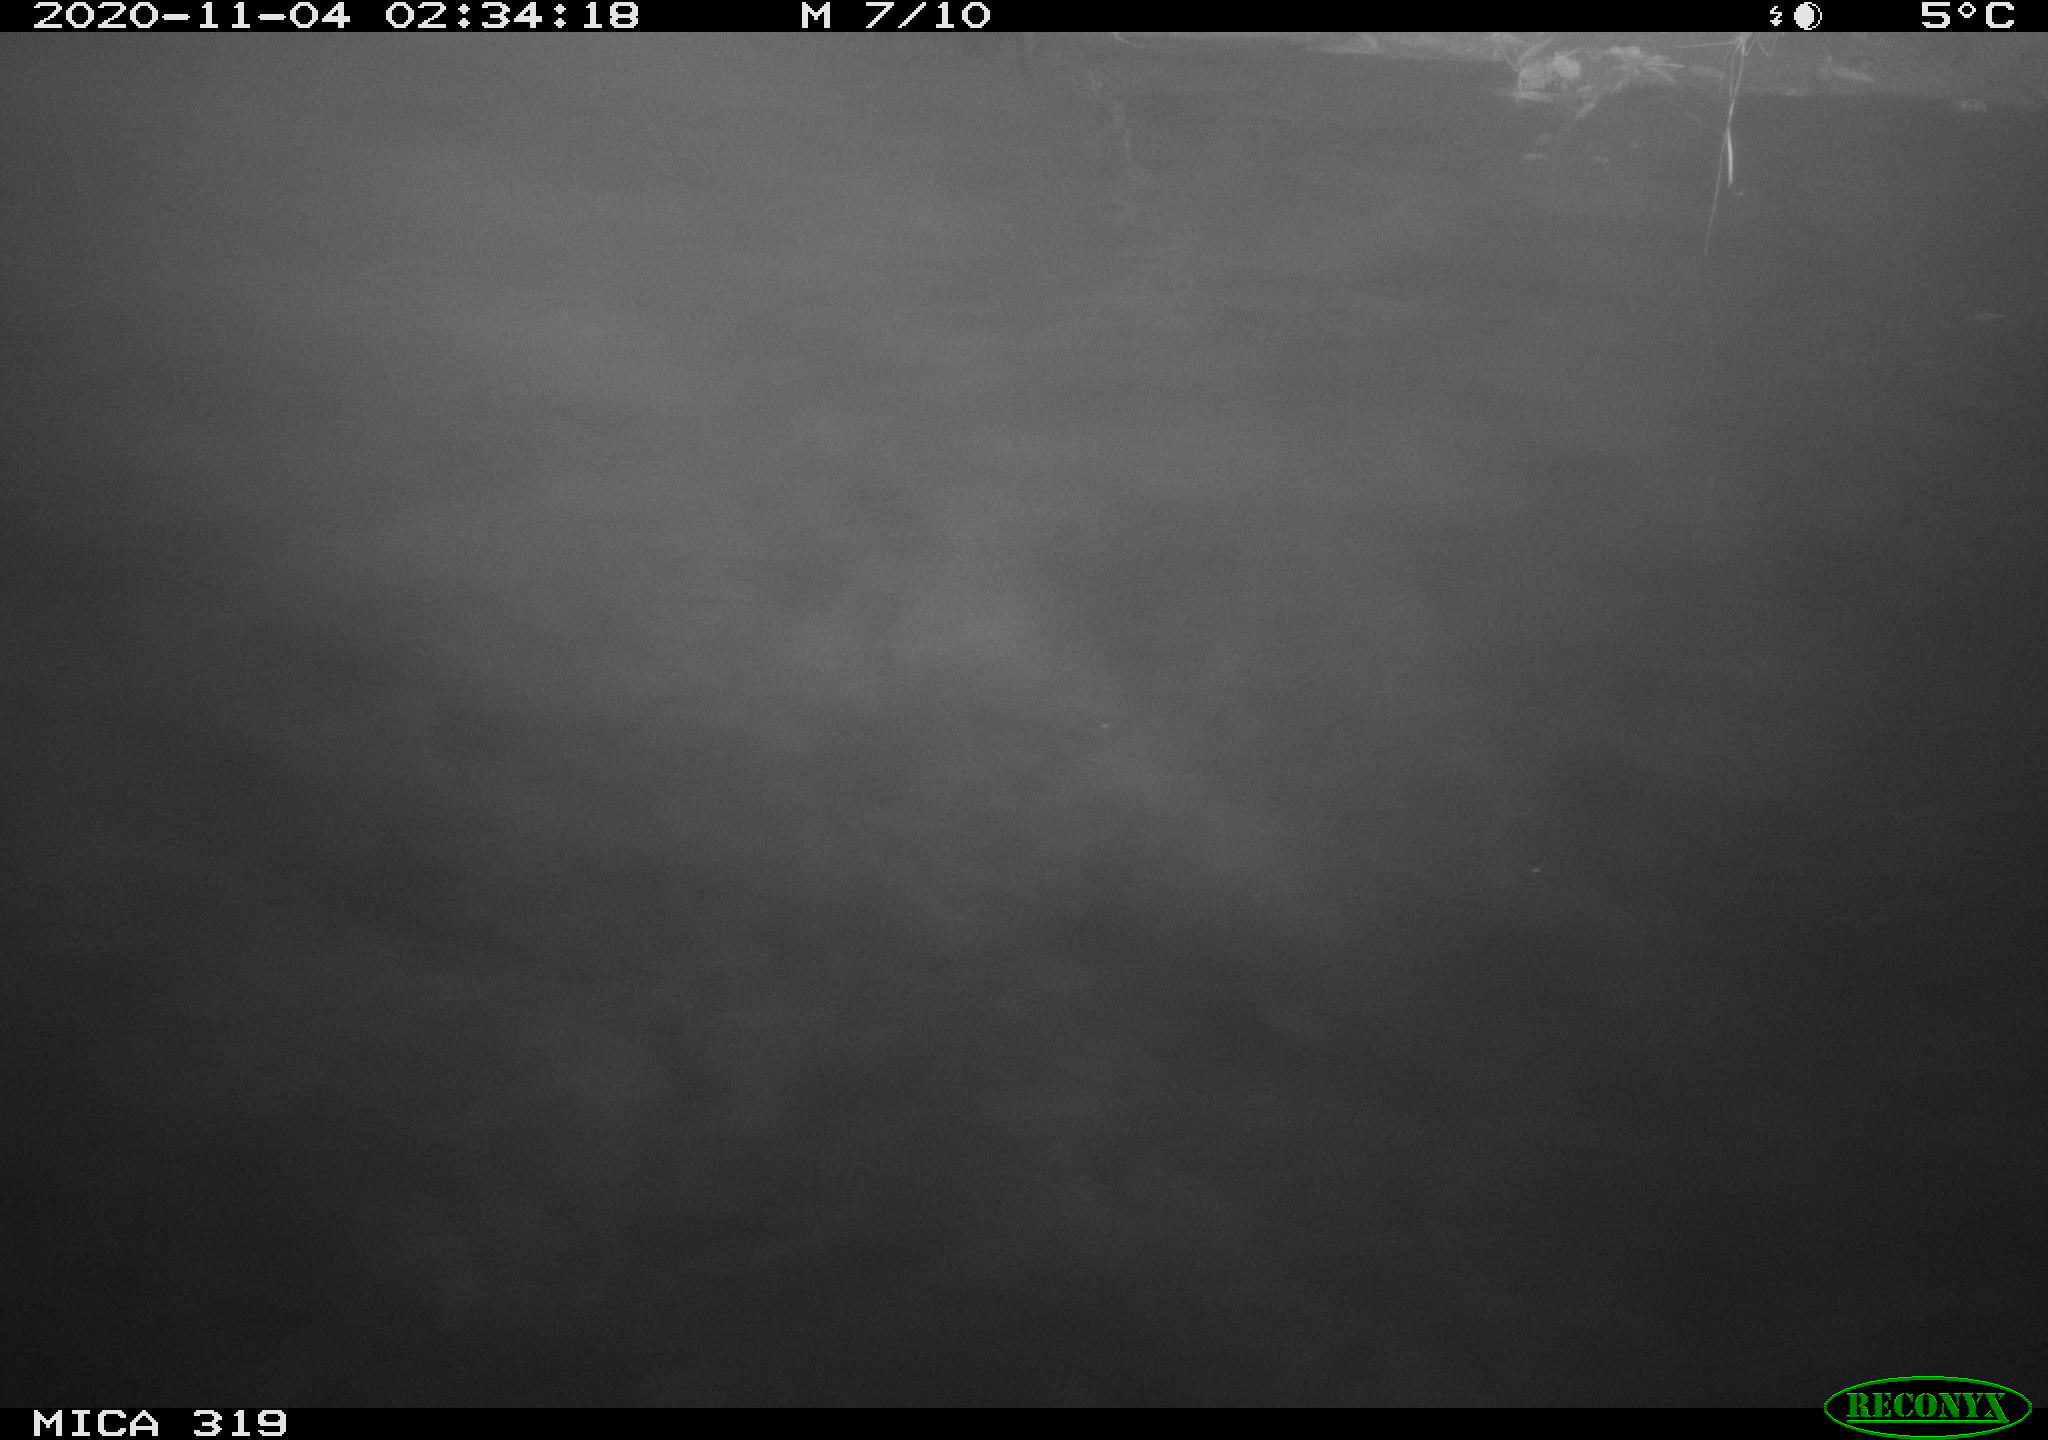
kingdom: Animalia
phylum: Chordata
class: Aves
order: Anseriformes
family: Anatidae
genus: Anas
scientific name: Anas platyrhynchos
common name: Mallard
